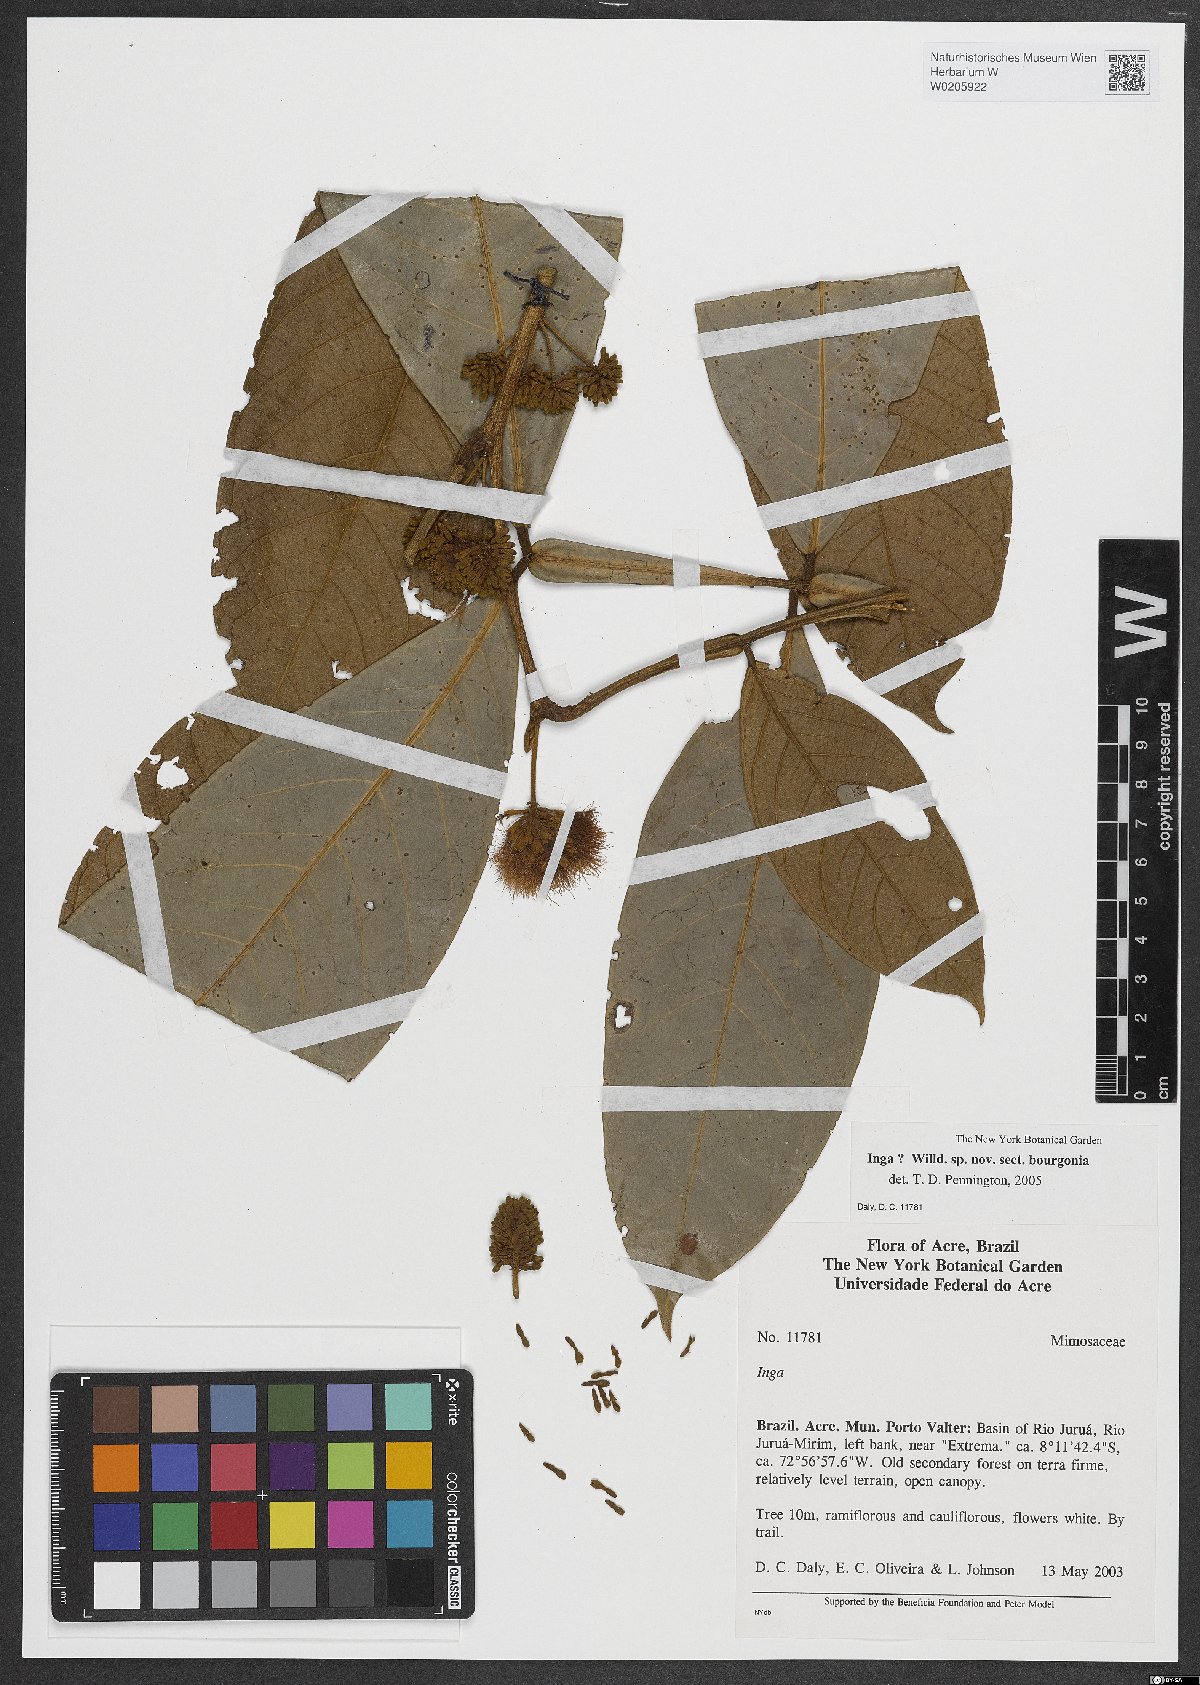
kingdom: Plantae
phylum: Tracheophyta
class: Magnoliopsida
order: Fabales
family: Fabaceae
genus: Inga
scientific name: Inga
